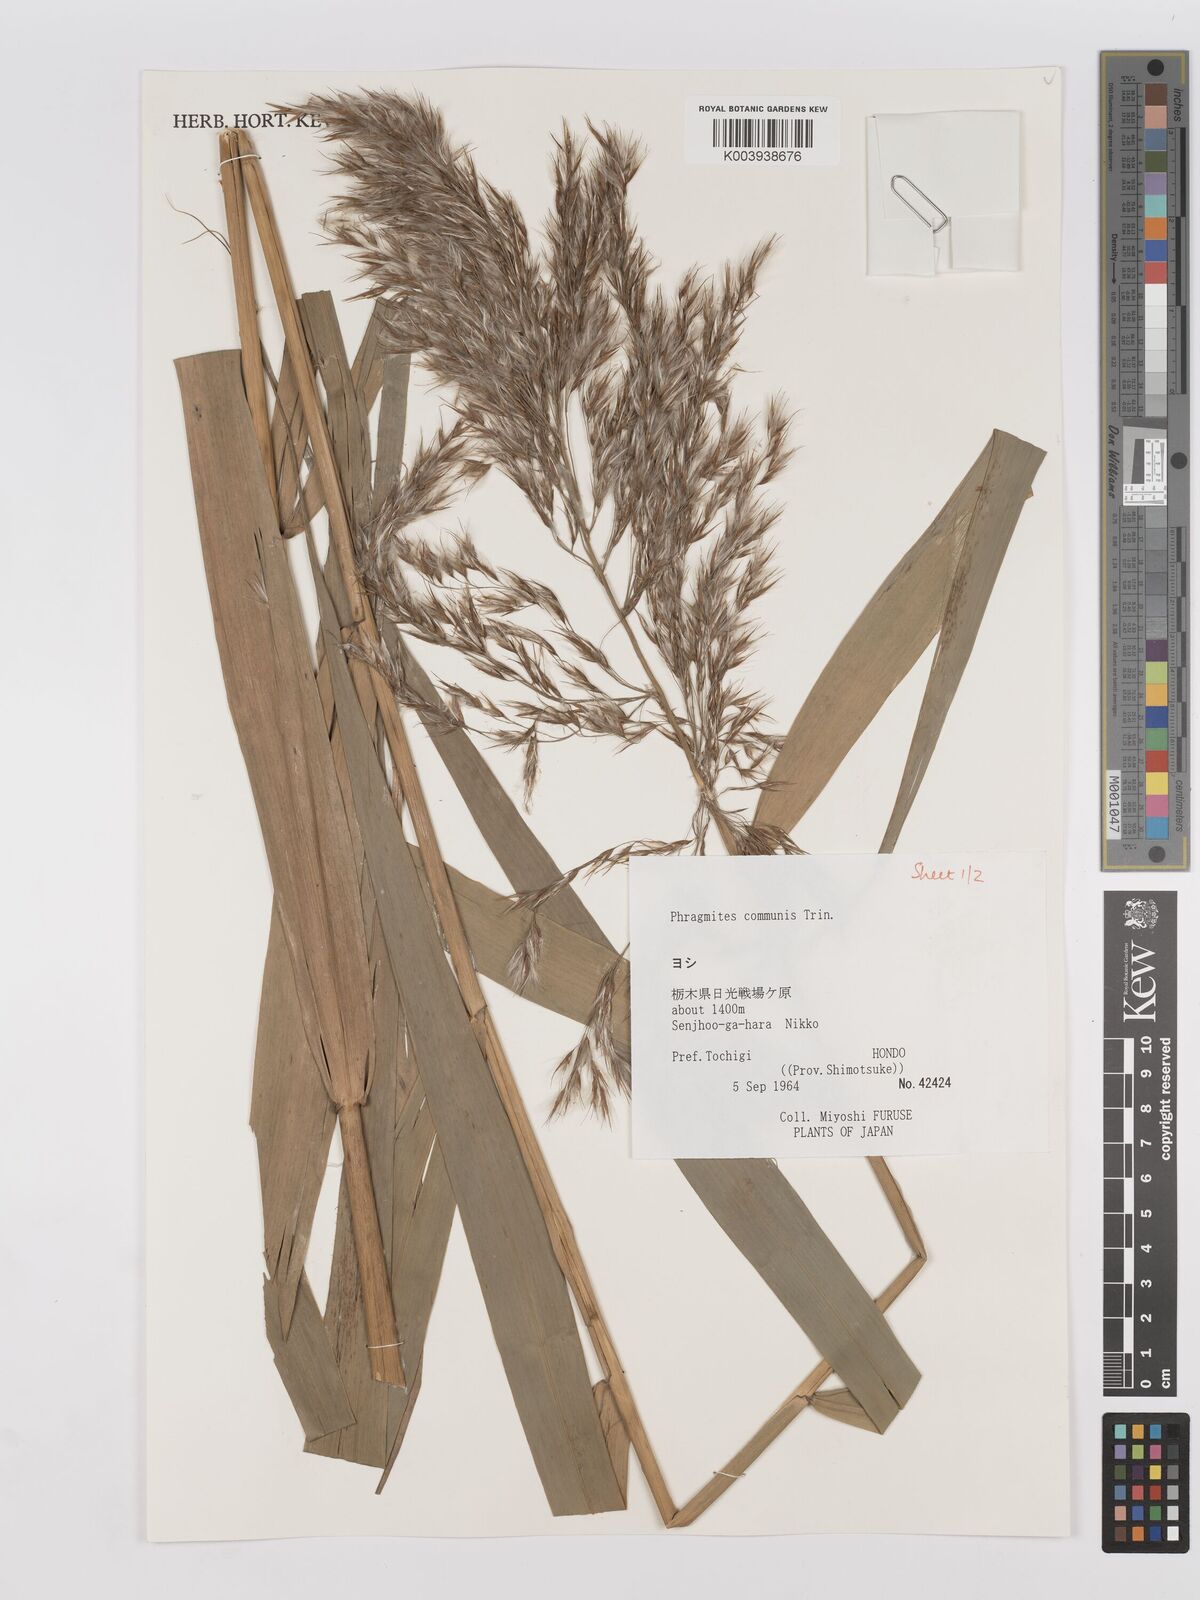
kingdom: Plantae
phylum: Tracheophyta
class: Liliopsida
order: Poales
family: Poaceae
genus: Phragmites
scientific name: Phragmites australis
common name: Common reed
